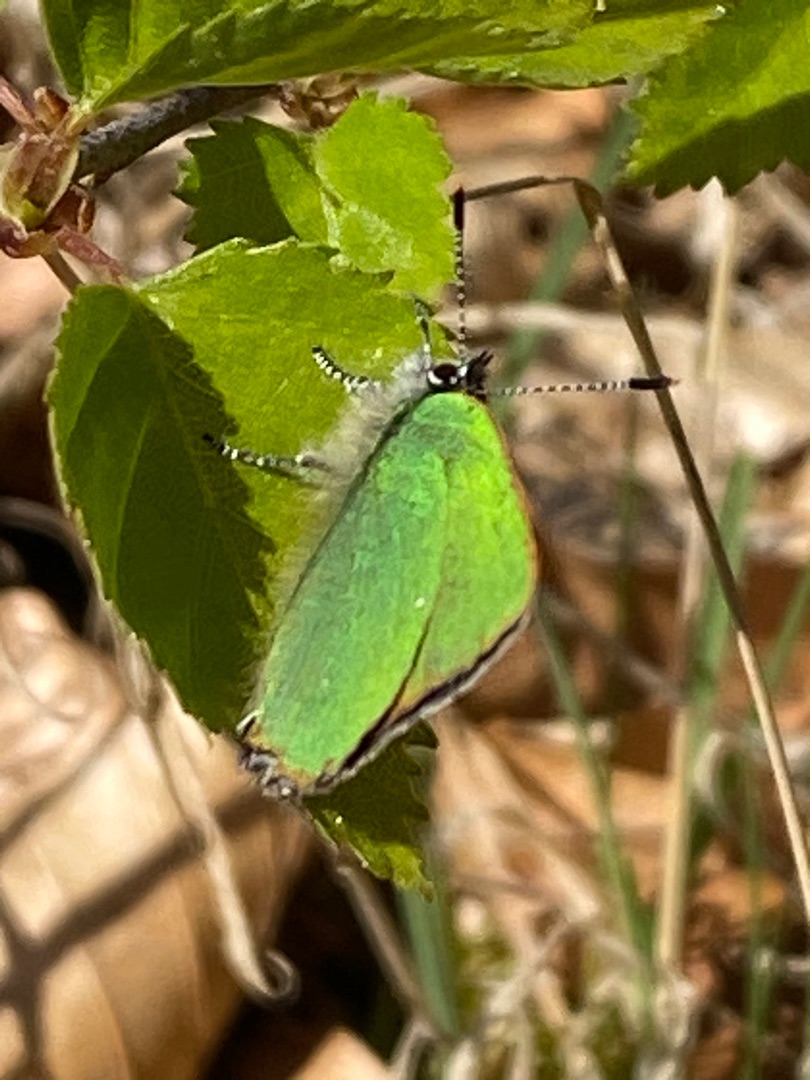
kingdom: Animalia
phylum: Arthropoda
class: Insecta
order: Lepidoptera
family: Lycaenidae
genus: Callophrys
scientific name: Callophrys rubi
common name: Grøn busksommerfugl
